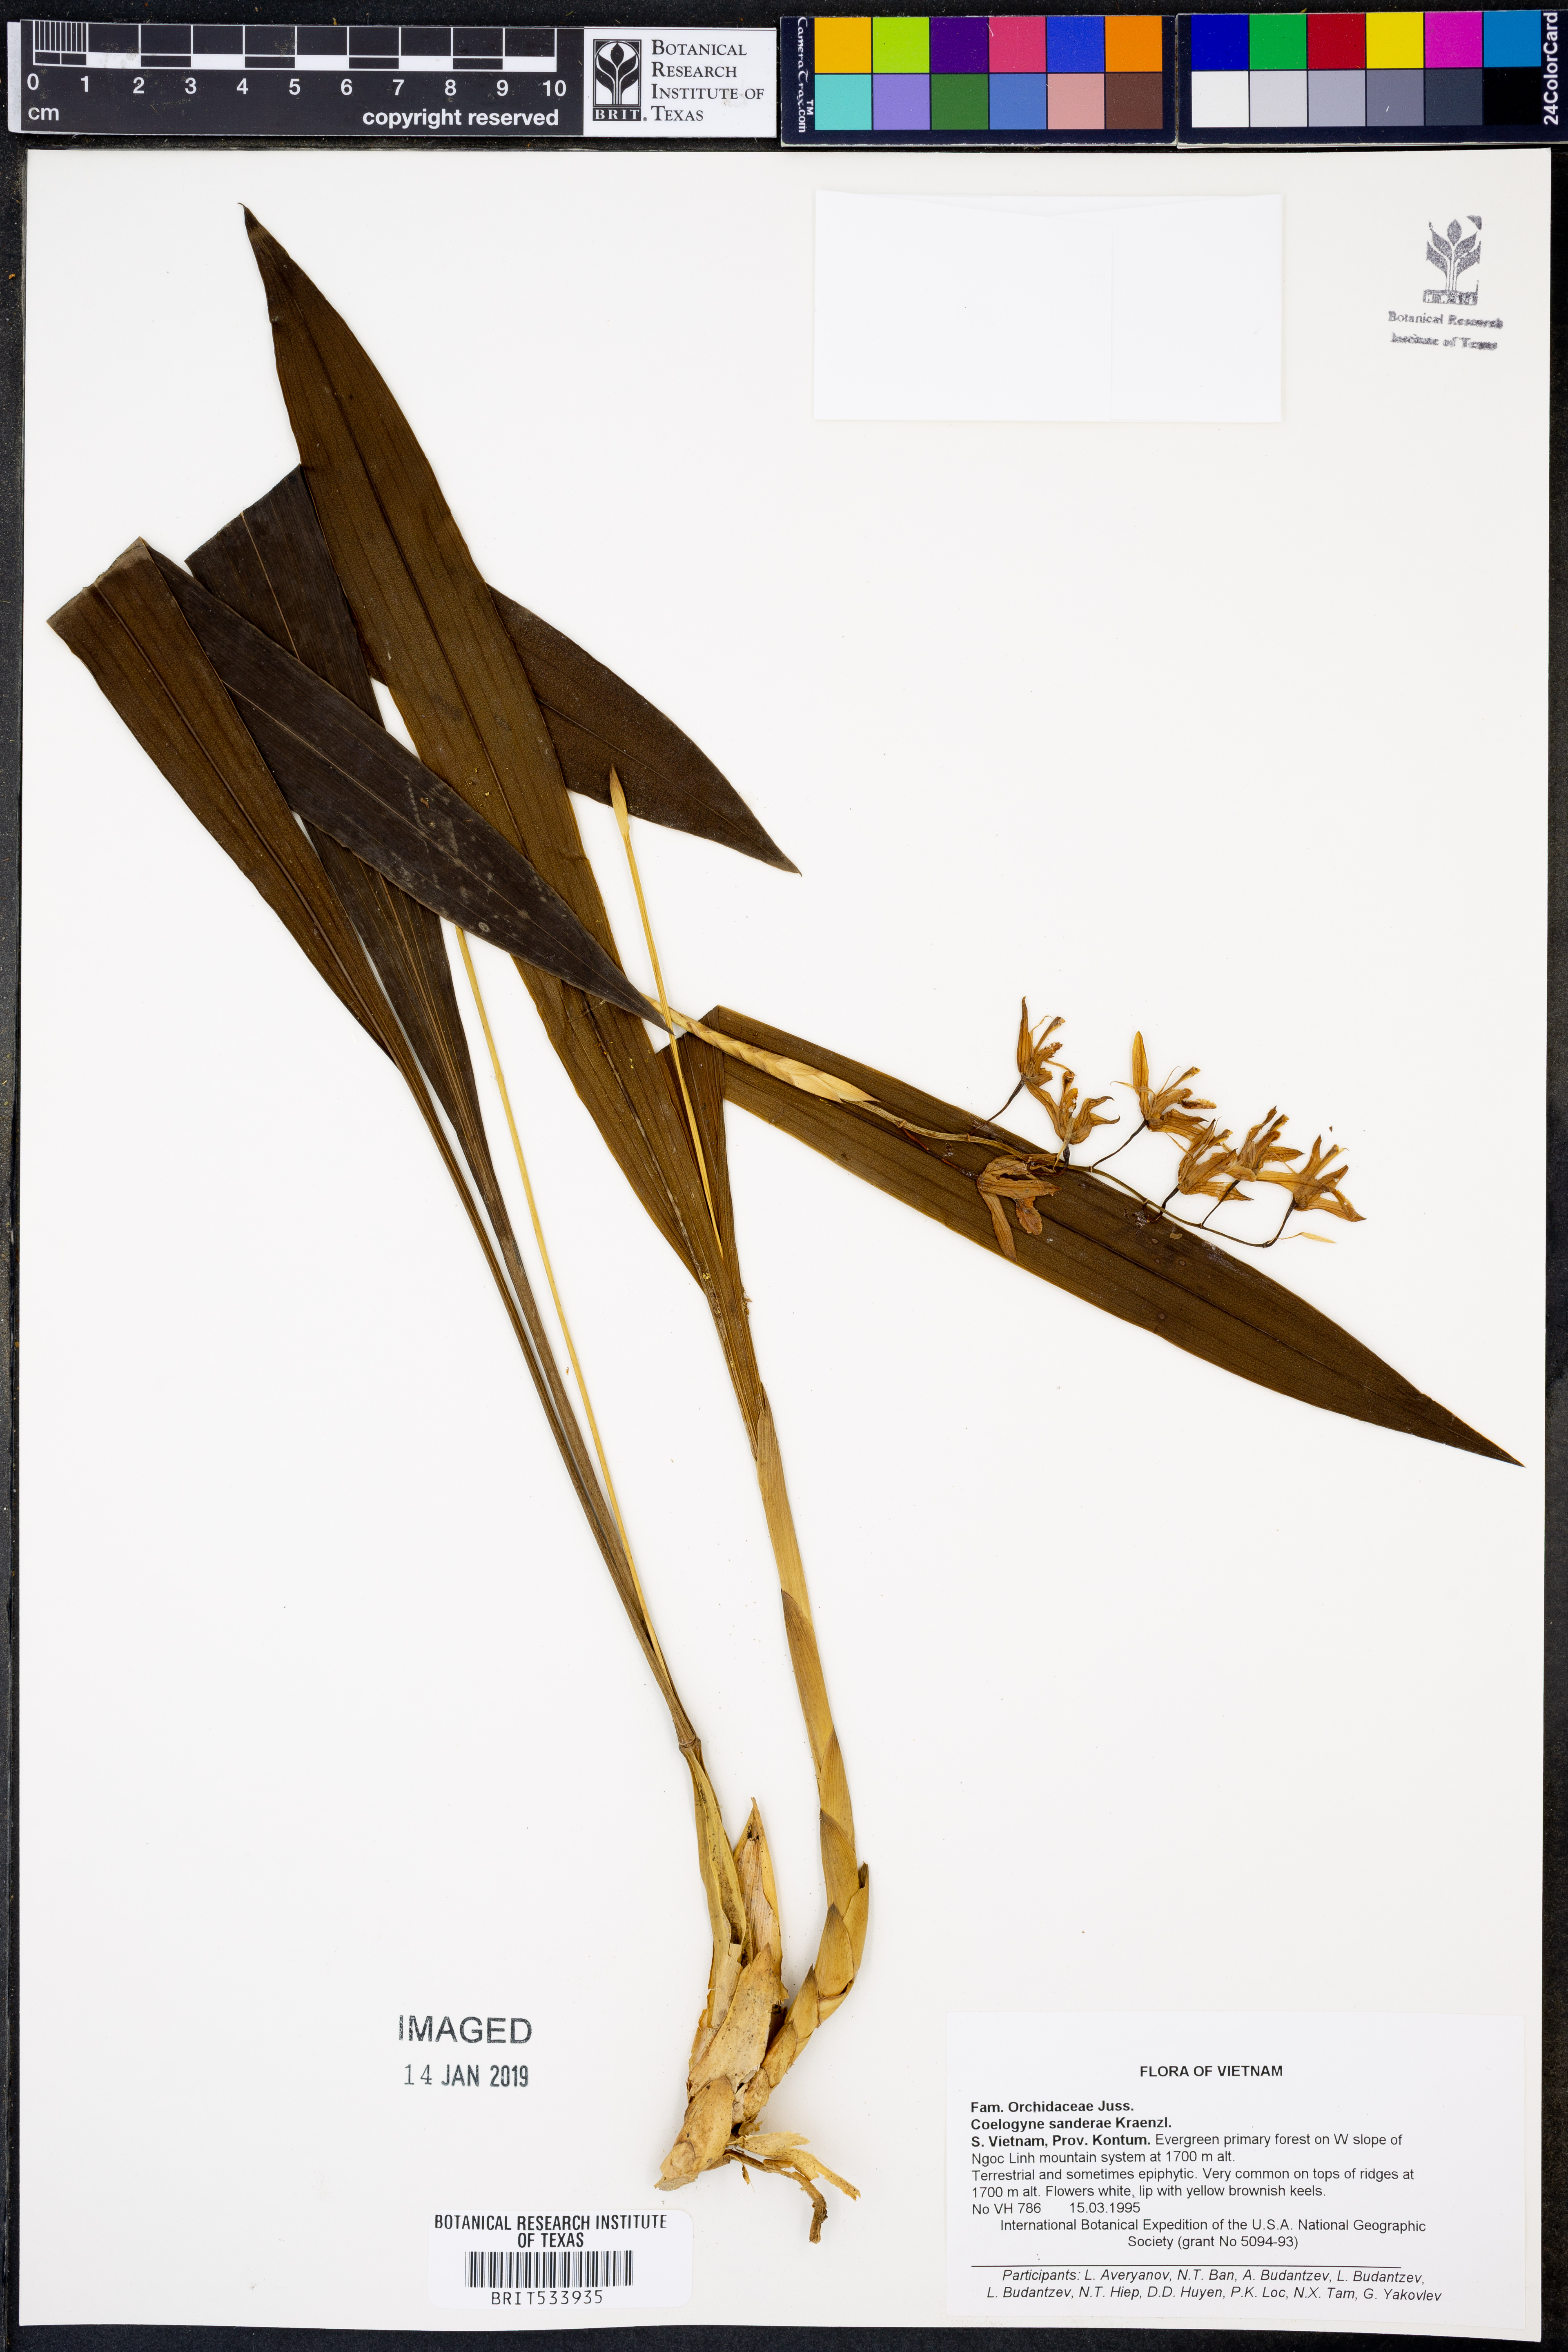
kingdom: Plantae
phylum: Tracheophyta
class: Liliopsida
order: Asparagales
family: Orchidaceae
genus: Coelogyne
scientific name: Coelogyne sanderae
